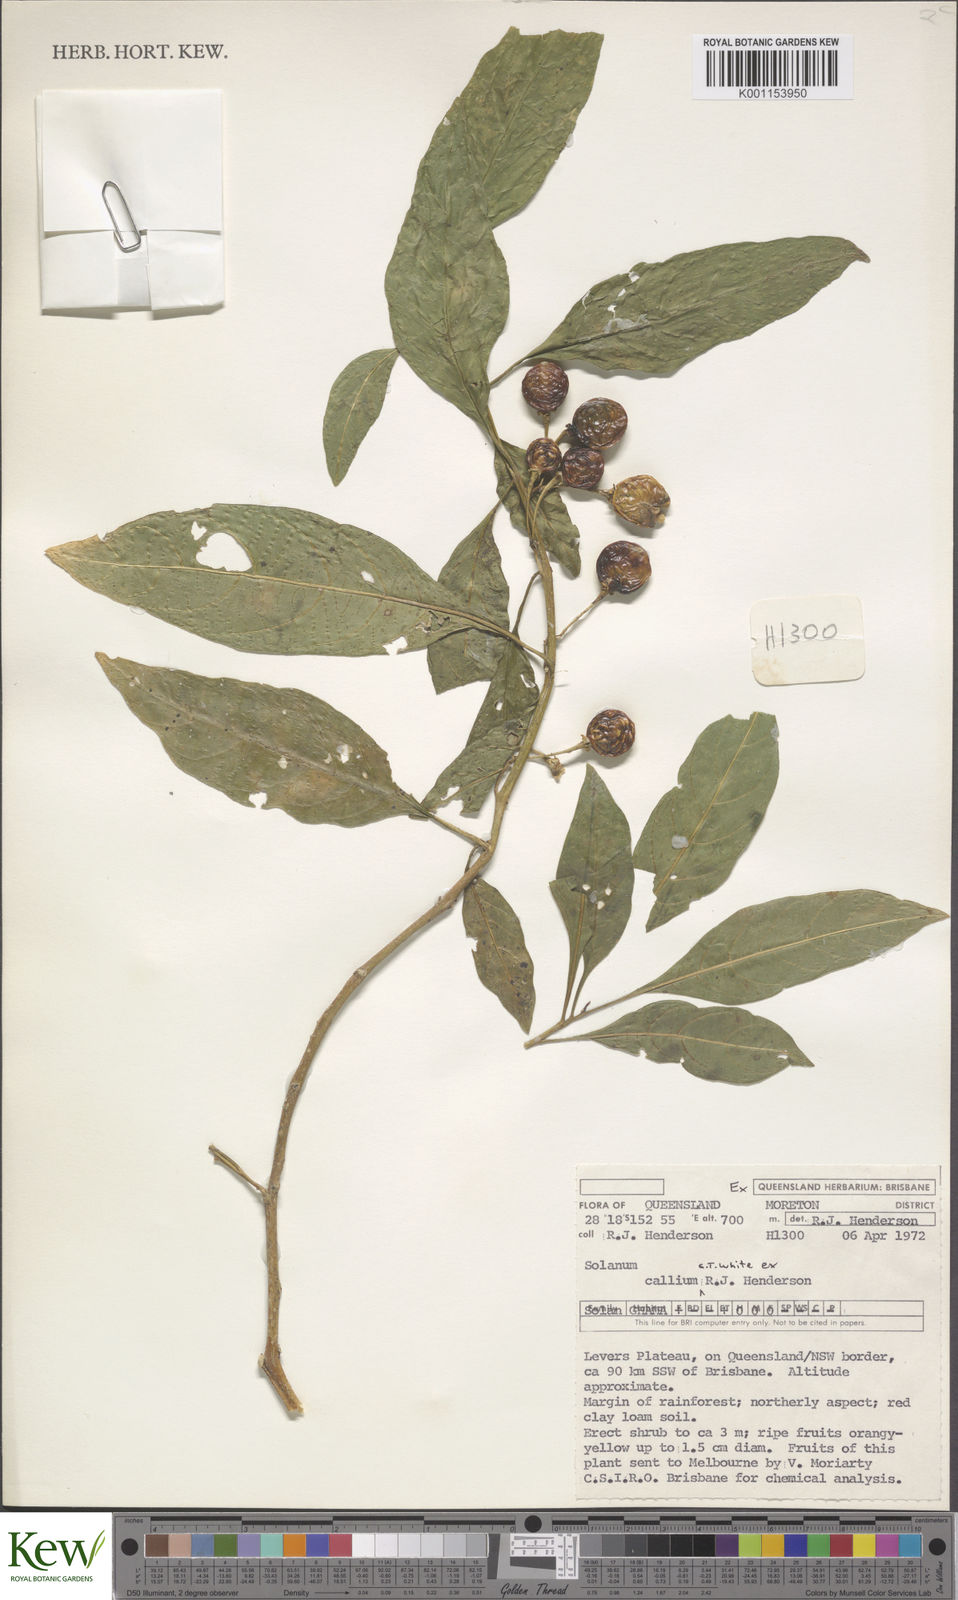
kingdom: Plantae
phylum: Tracheophyta
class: Magnoliopsida
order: Solanales
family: Solanaceae
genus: Solanum
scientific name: Solanum spirale
